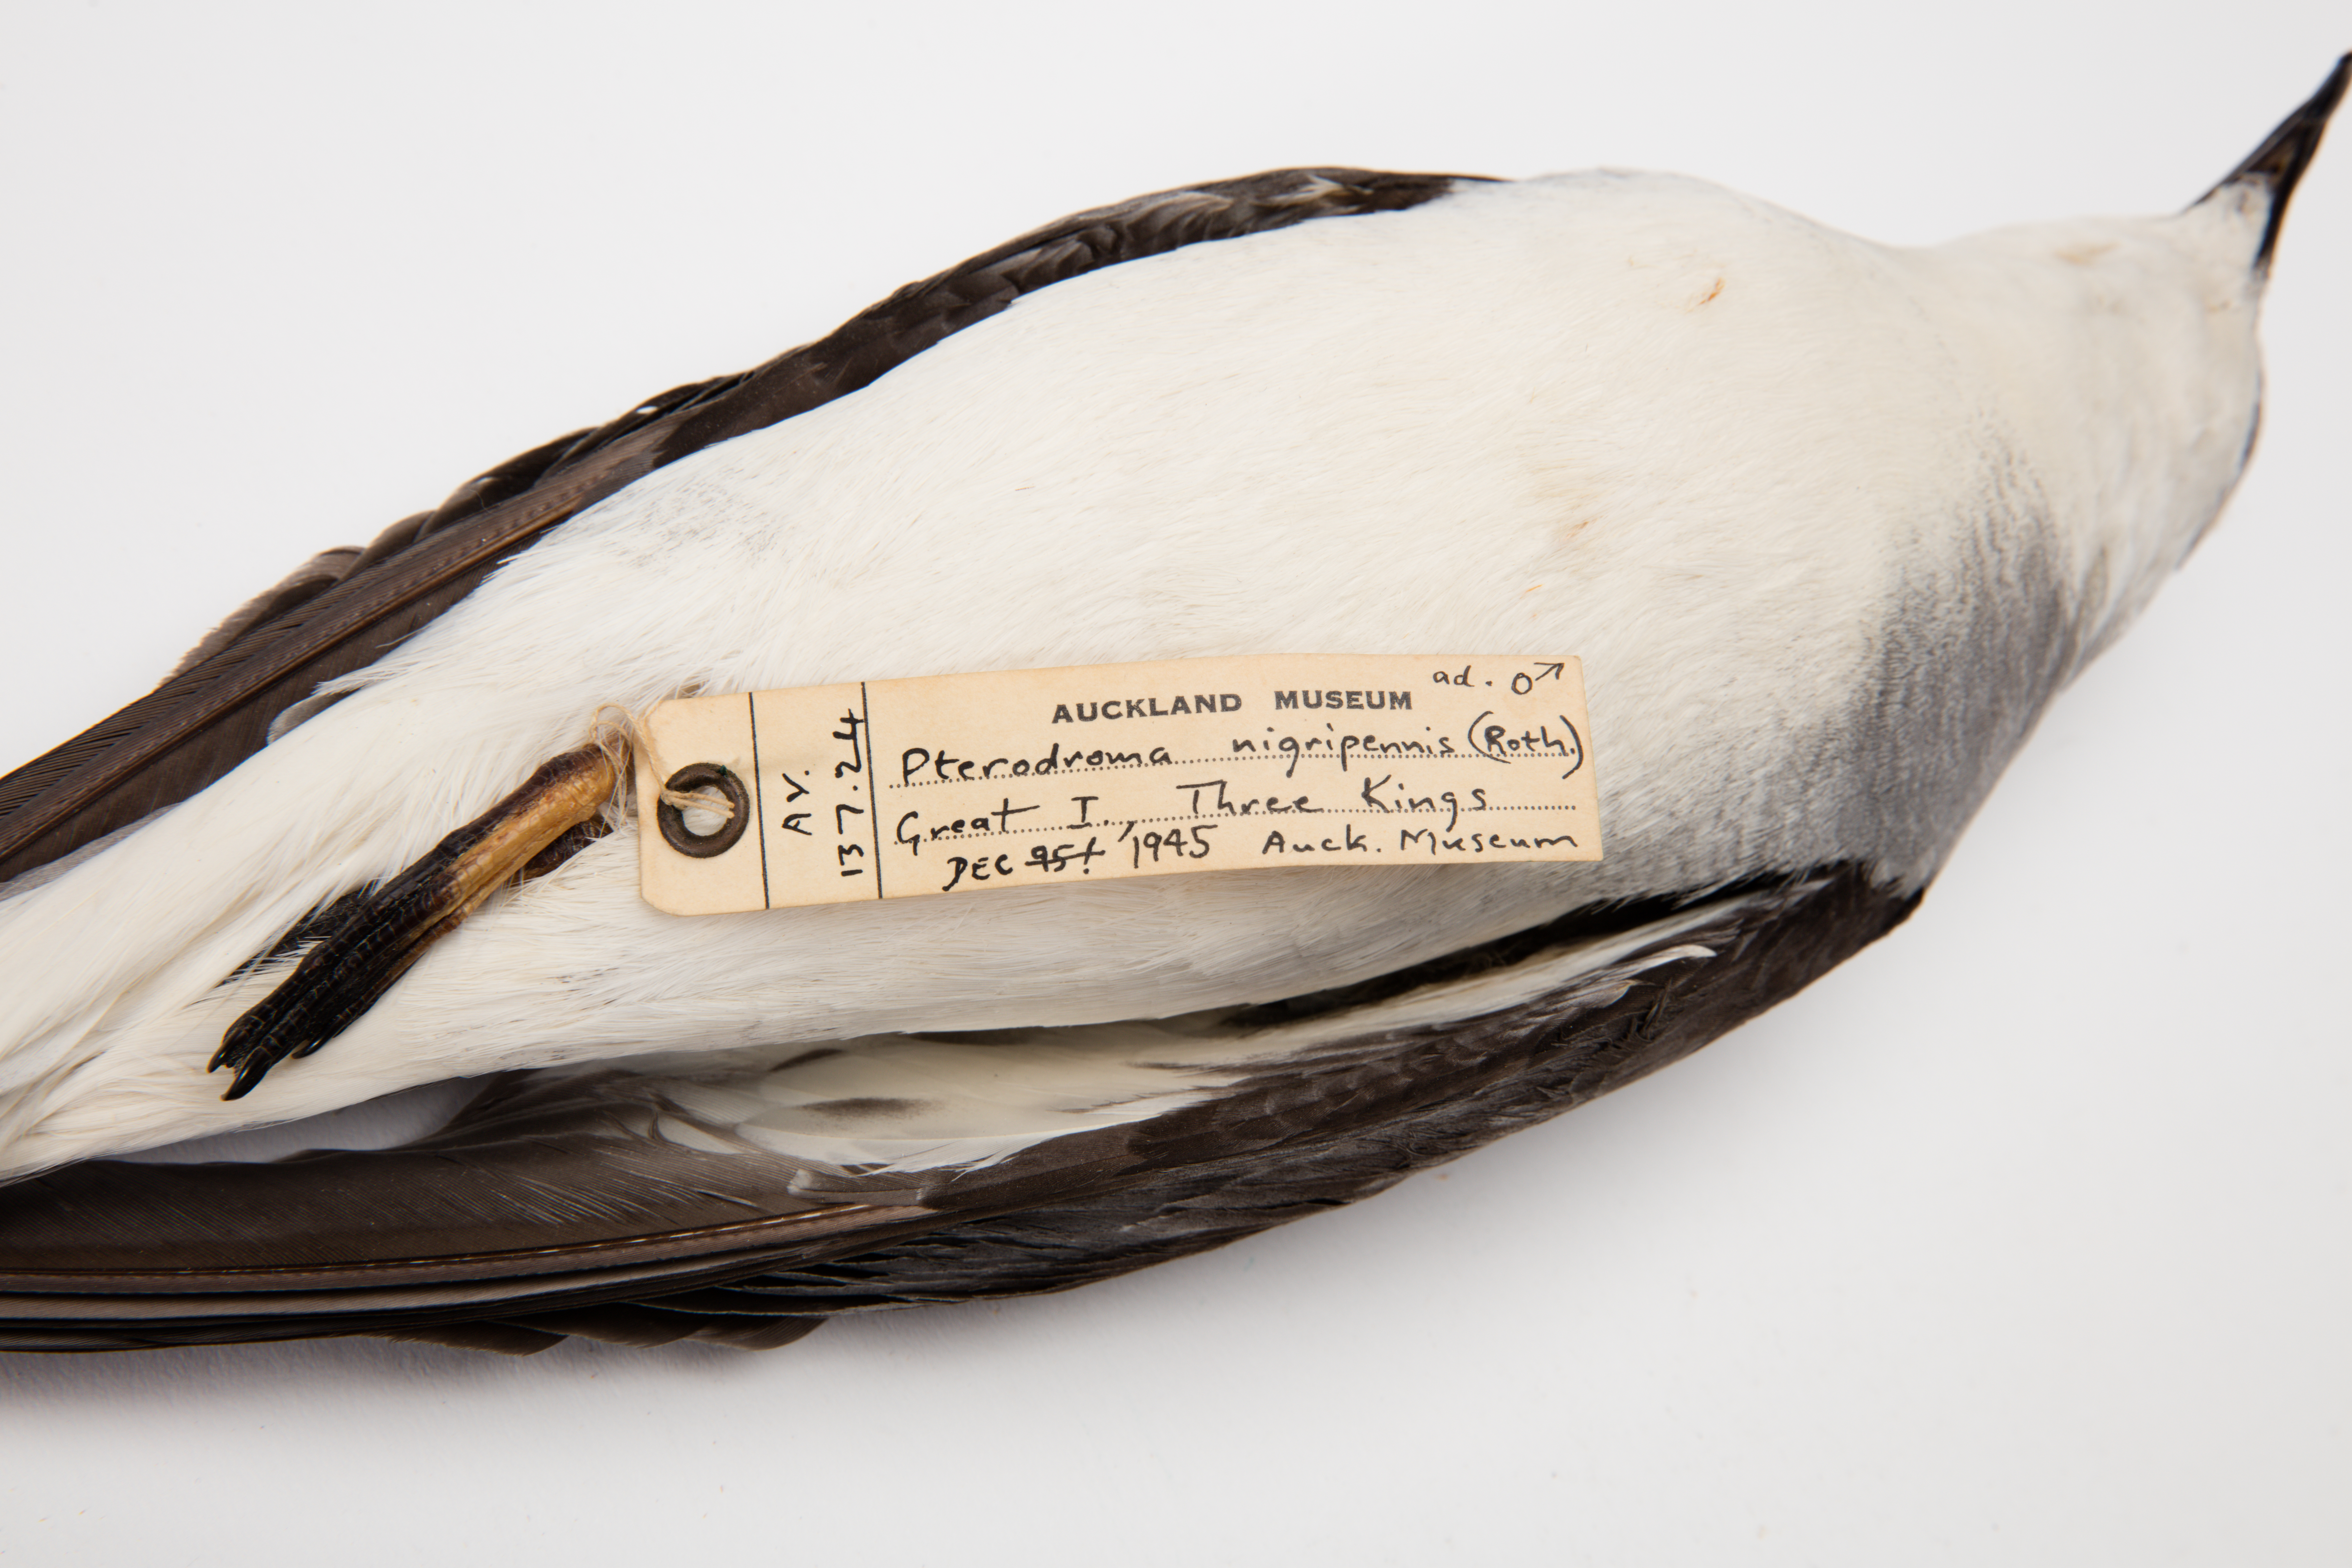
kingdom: Animalia
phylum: Chordata
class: Aves
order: Procellariiformes
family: Procellariidae
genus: Pterodroma
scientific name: Pterodroma nigripennis
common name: Black-winged petrel
